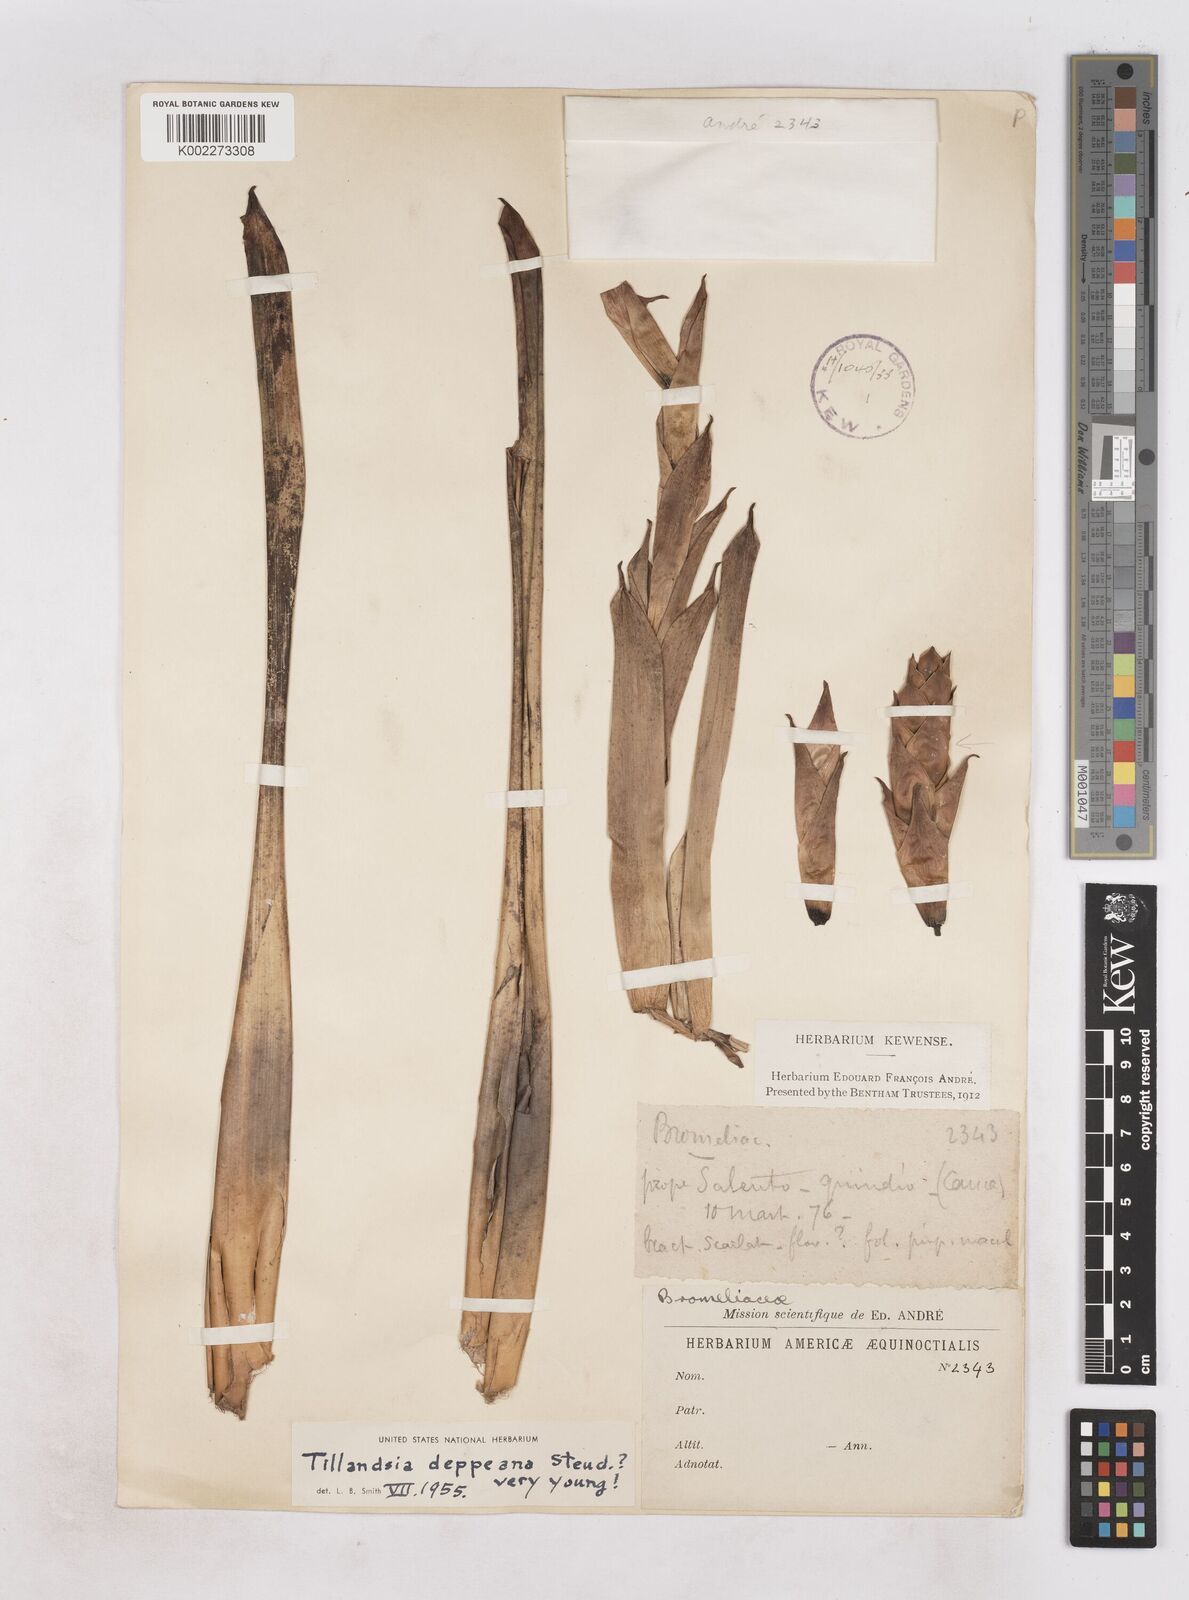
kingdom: Plantae
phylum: Tracheophyta
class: Liliopsida
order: Poales
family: Bromeliaceae
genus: Tillandsia
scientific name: Tillandsia deppeana
